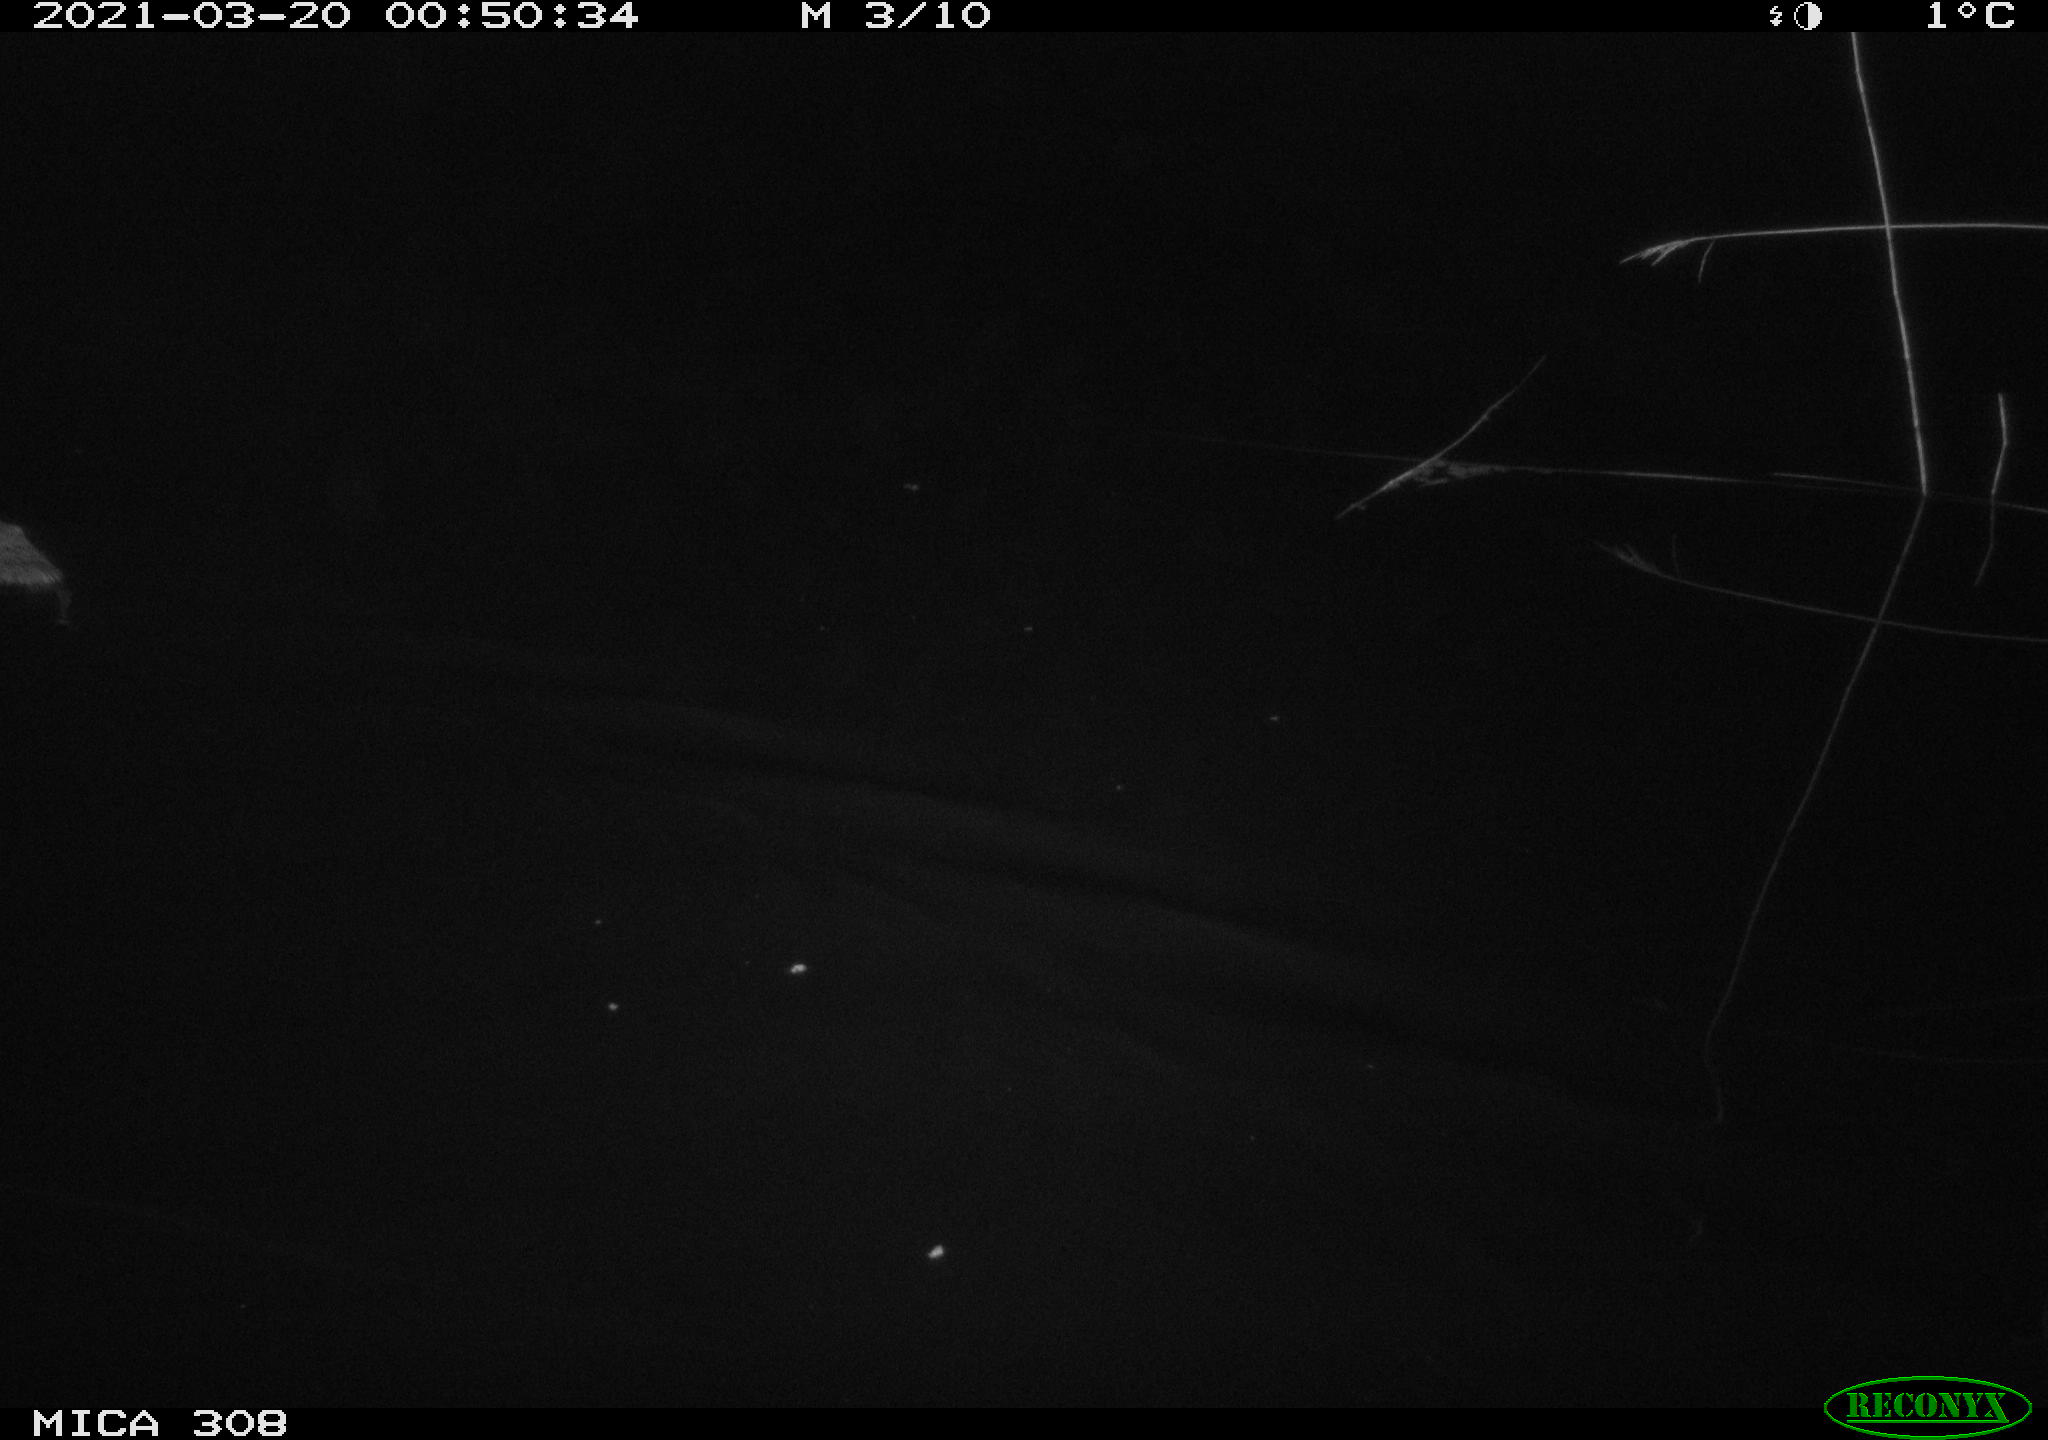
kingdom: Animalia
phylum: Chordata
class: Mammalia
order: Rodentia
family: Cricetidae
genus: Ondatra
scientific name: Ondatra zibethicus
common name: Muskrat
